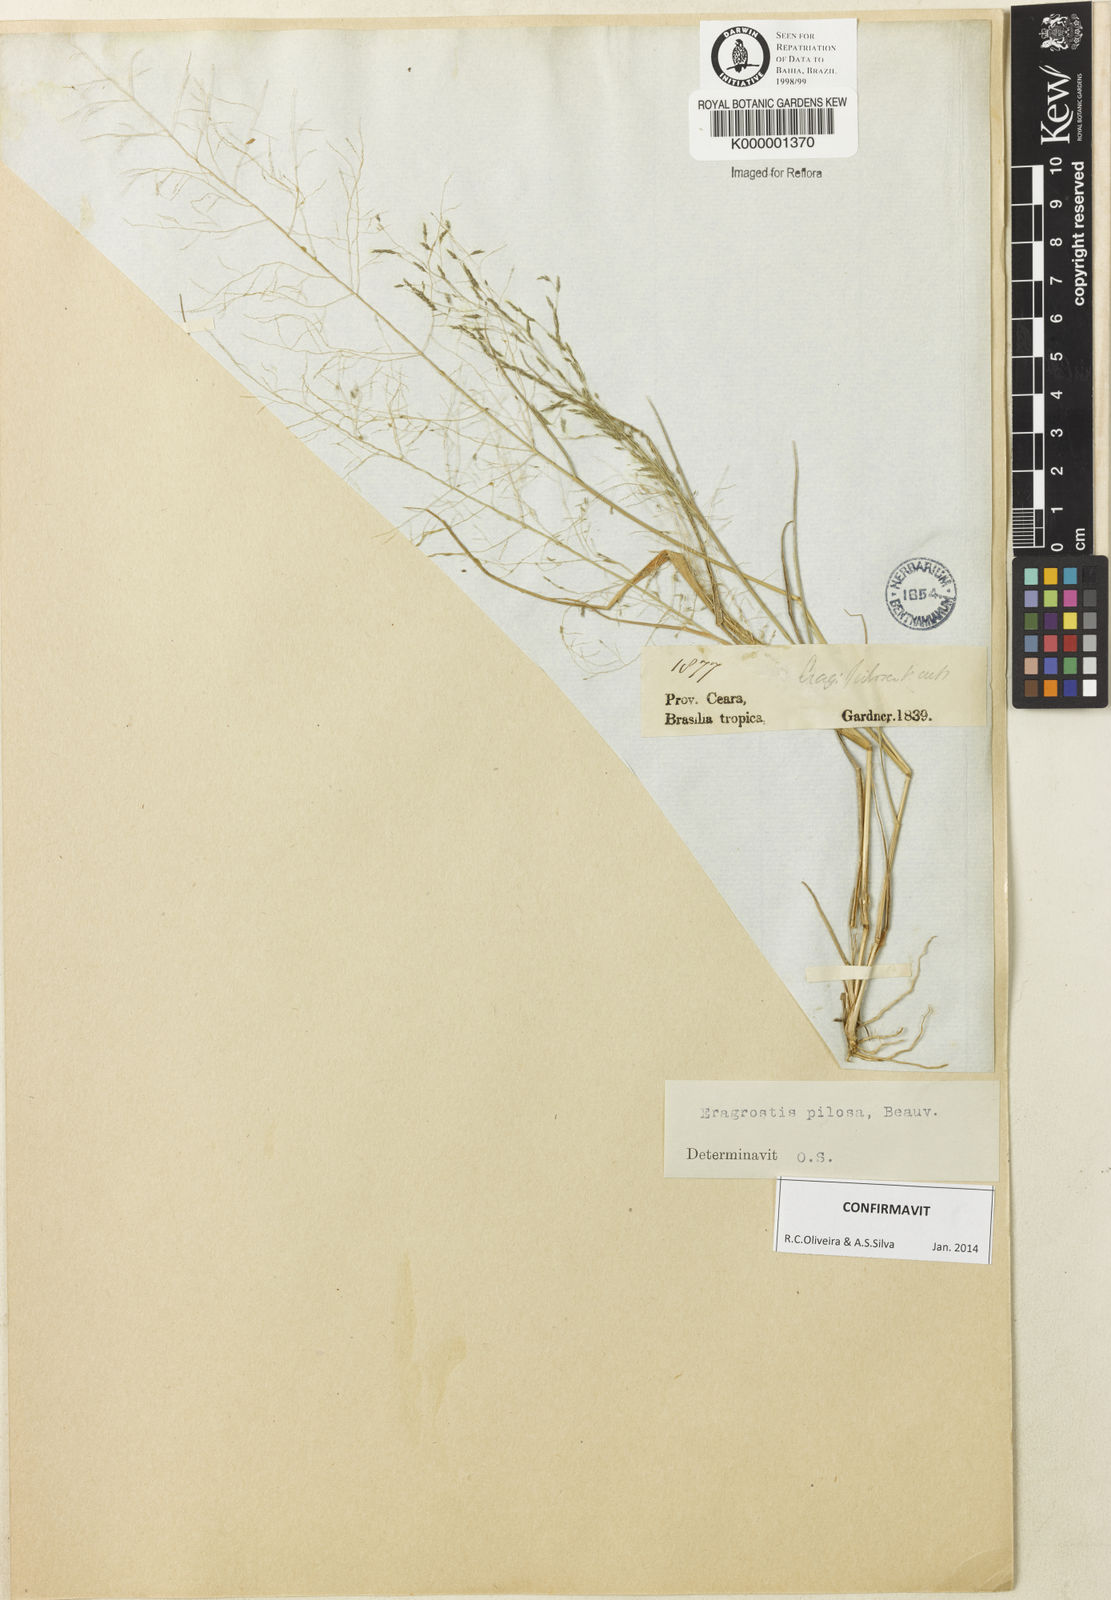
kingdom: Plantae
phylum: Tracheophyta
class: Liliopsida
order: Poales
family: Poaceae
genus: Eragrostis
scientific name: Eragrostis pilosa
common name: Indian lovegrass
